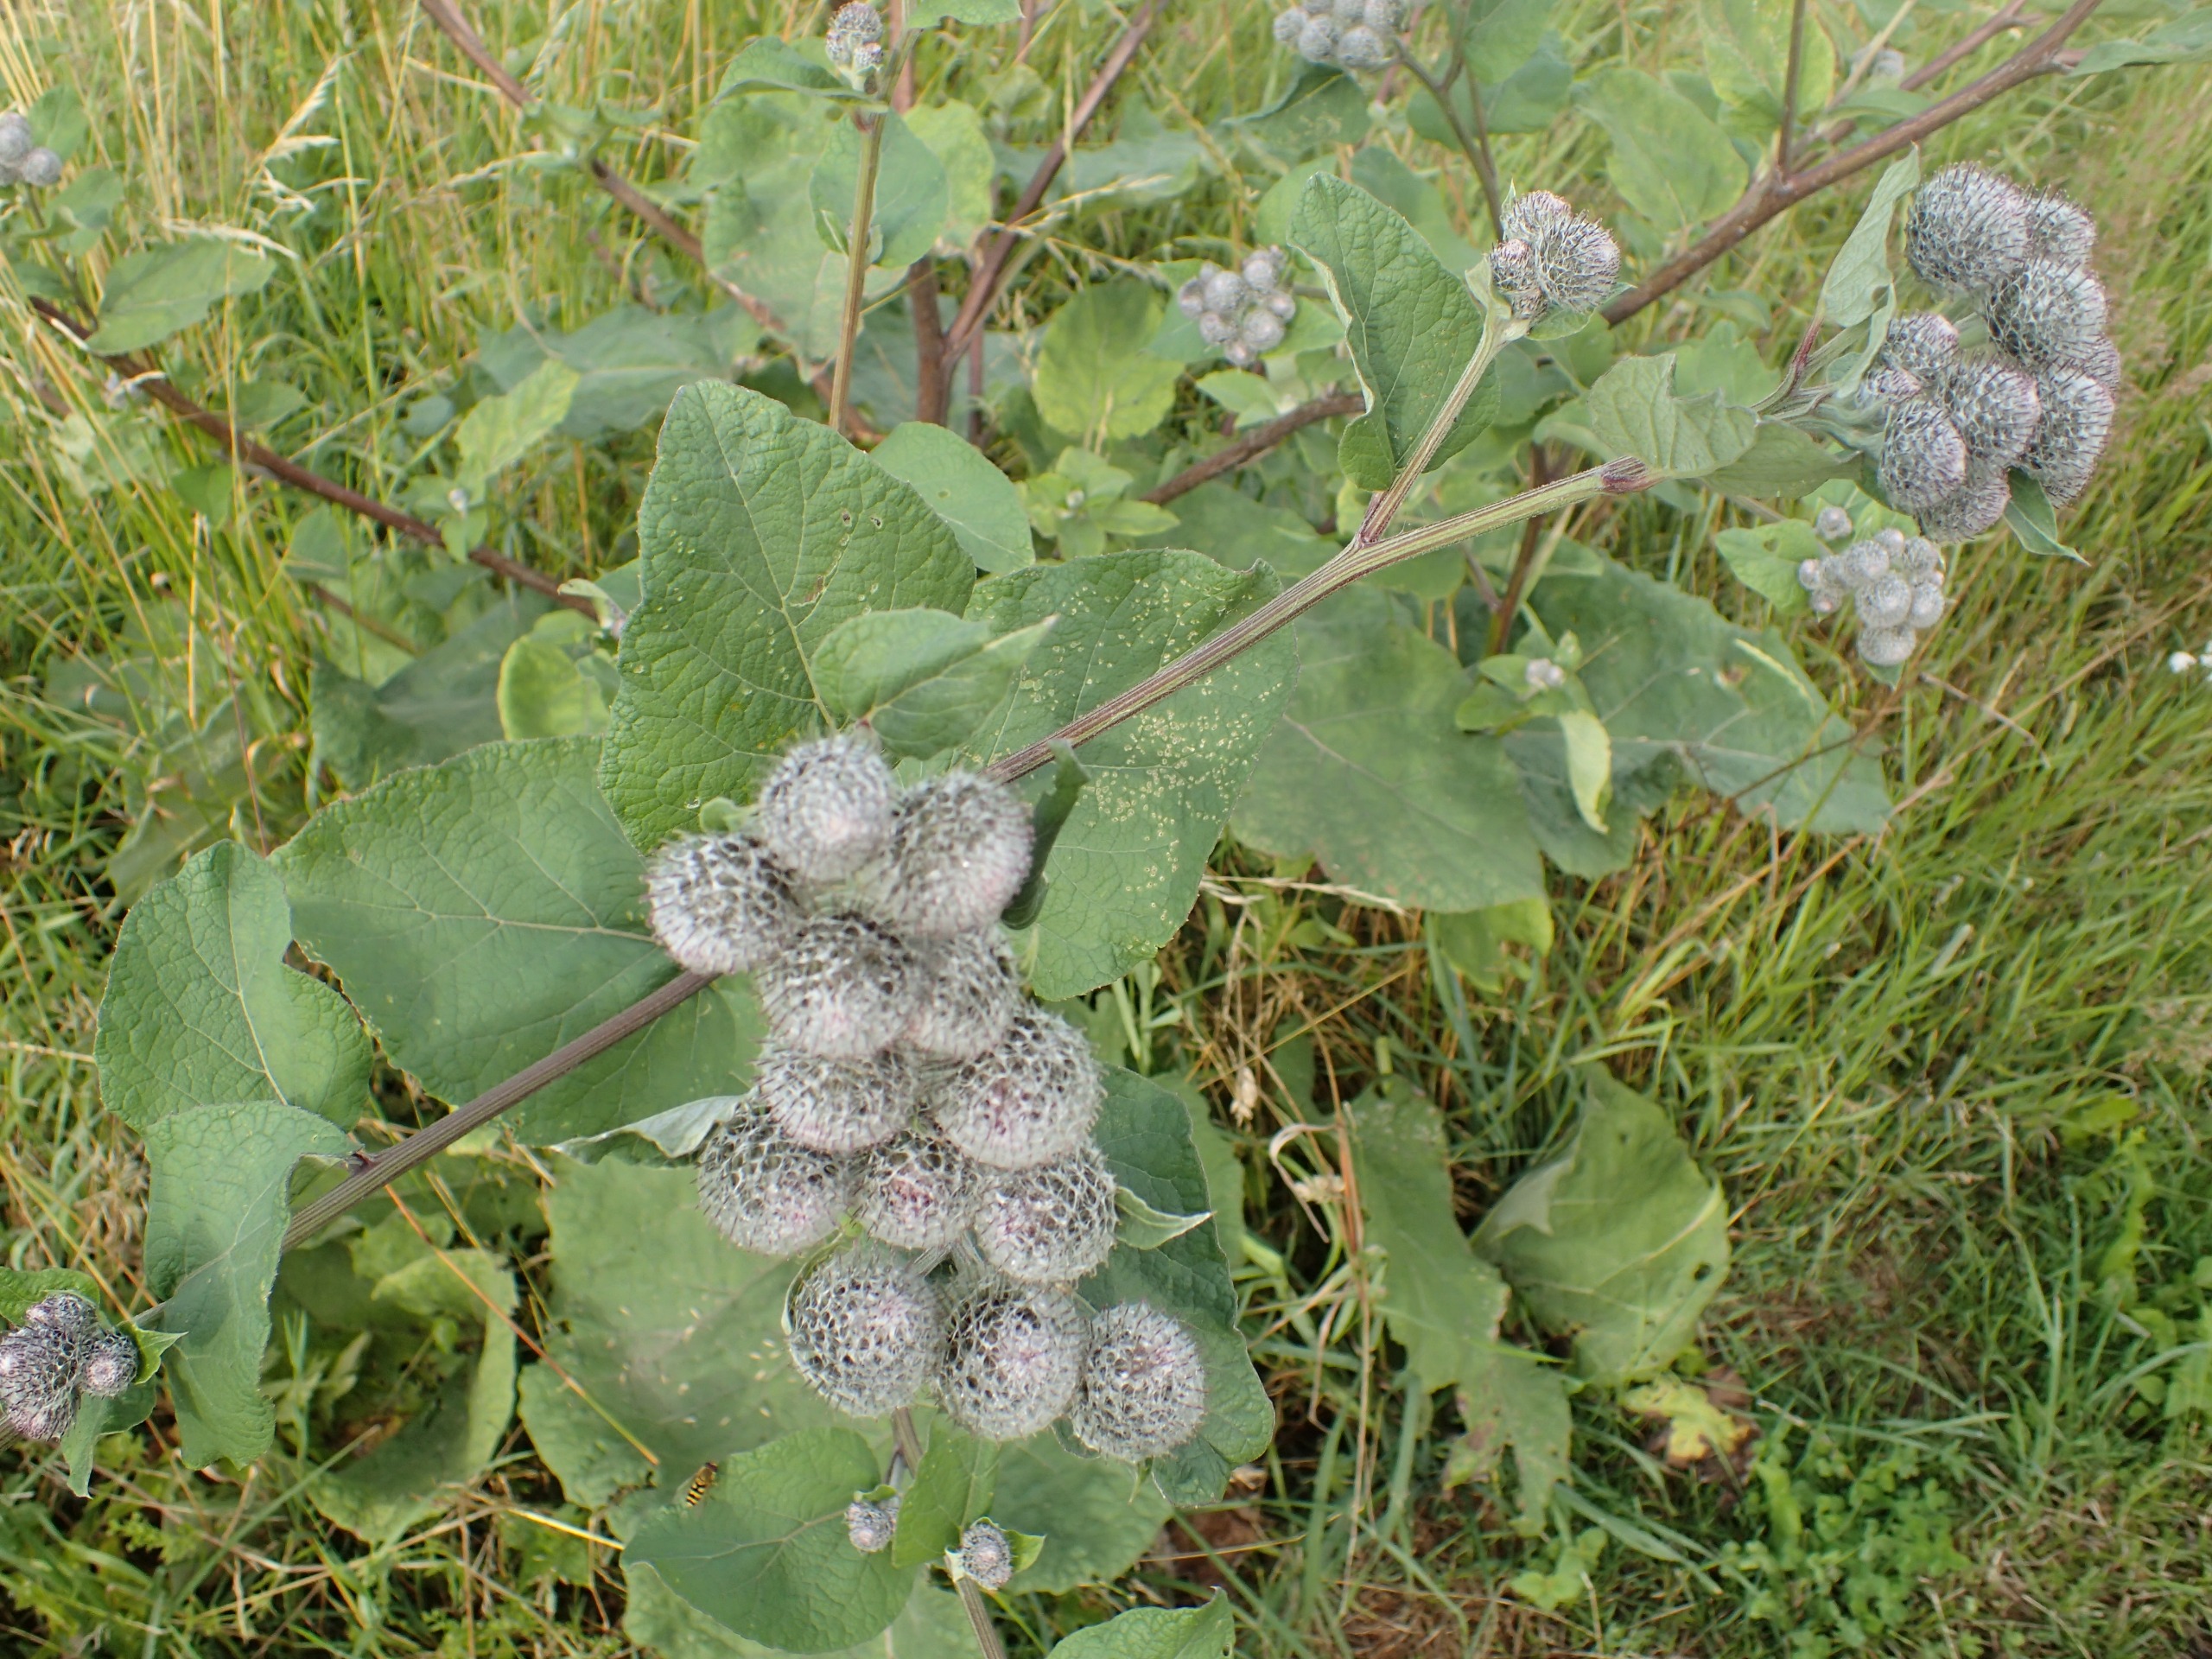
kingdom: Plantae
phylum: Tracheophyta
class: Magnoliopsida
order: Asterales
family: Asteraceae
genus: Arctium
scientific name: Arctium tomentosum
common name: Filtet burre
